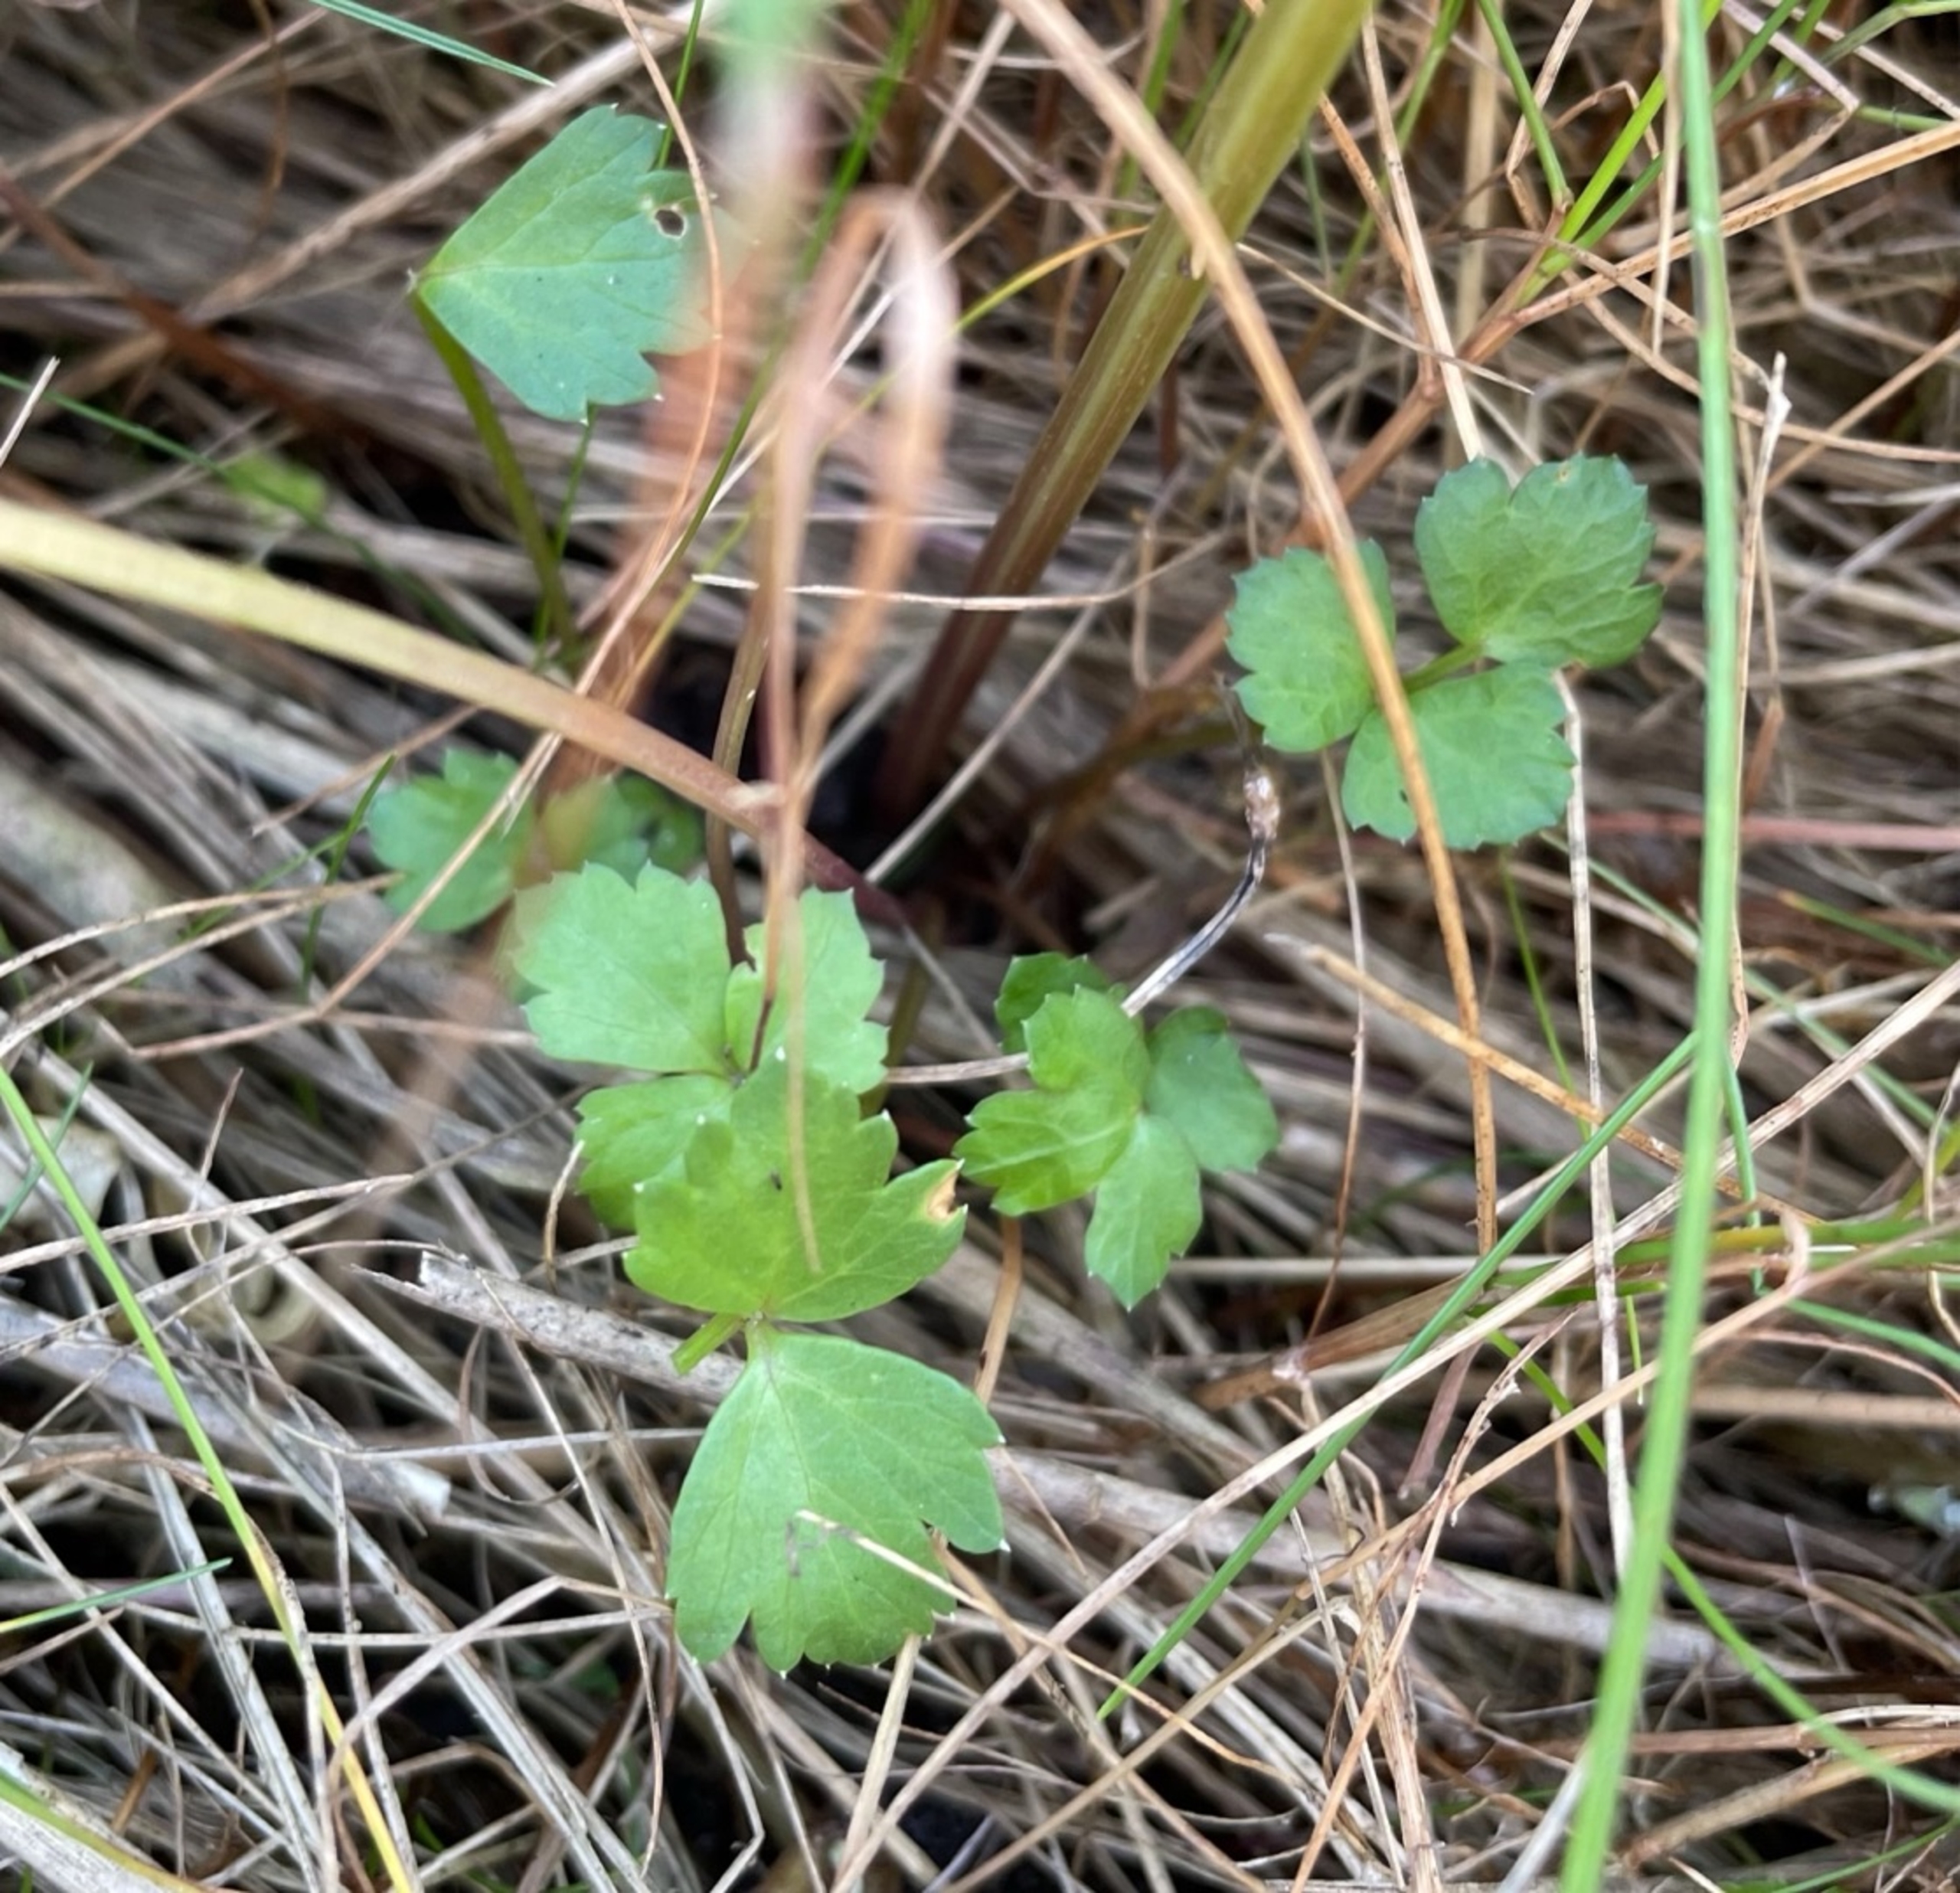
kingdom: Plantae
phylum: Tracheophyta
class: Magnoliopsida
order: Apiales
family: Apiaceae
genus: Apium
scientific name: Apium graveolens
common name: Vild selleri
